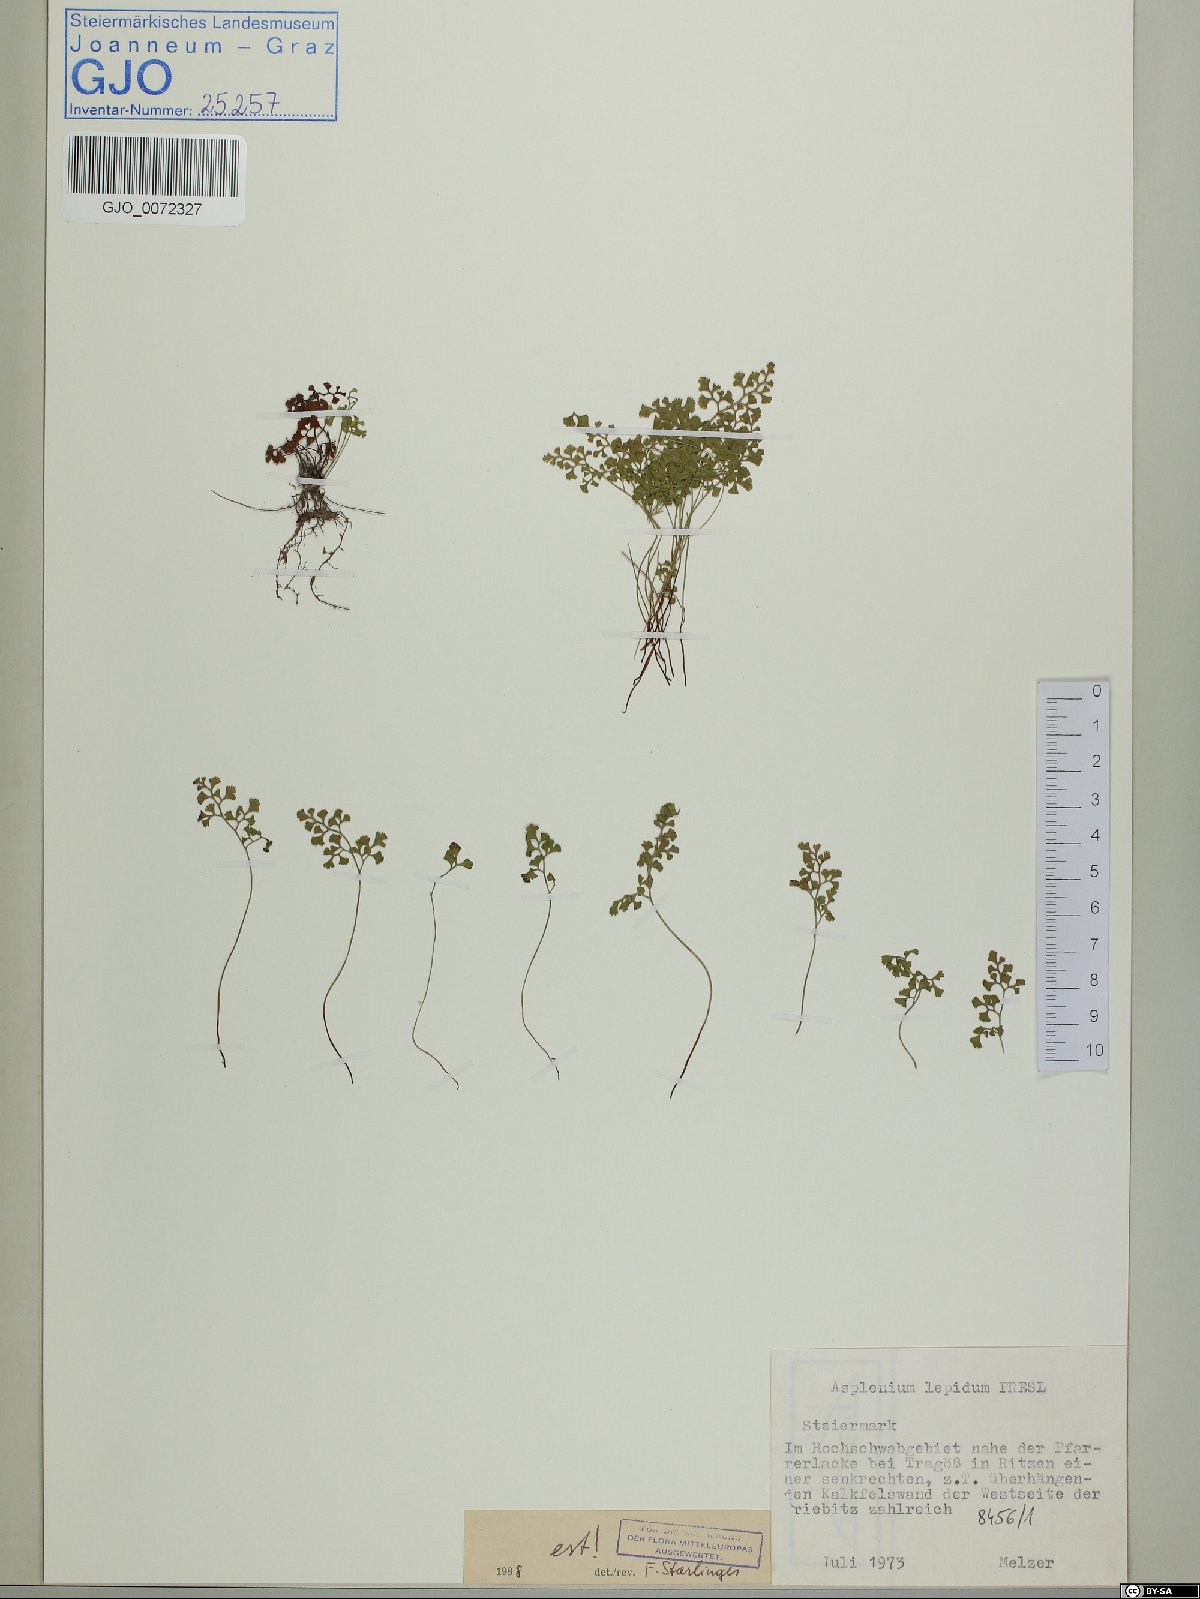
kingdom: Plantae
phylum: Tracheophyta
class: Polypodiopsida
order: Polypodiales
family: Aspleniaceae
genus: Asplenium
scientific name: Asplenium lepidum
